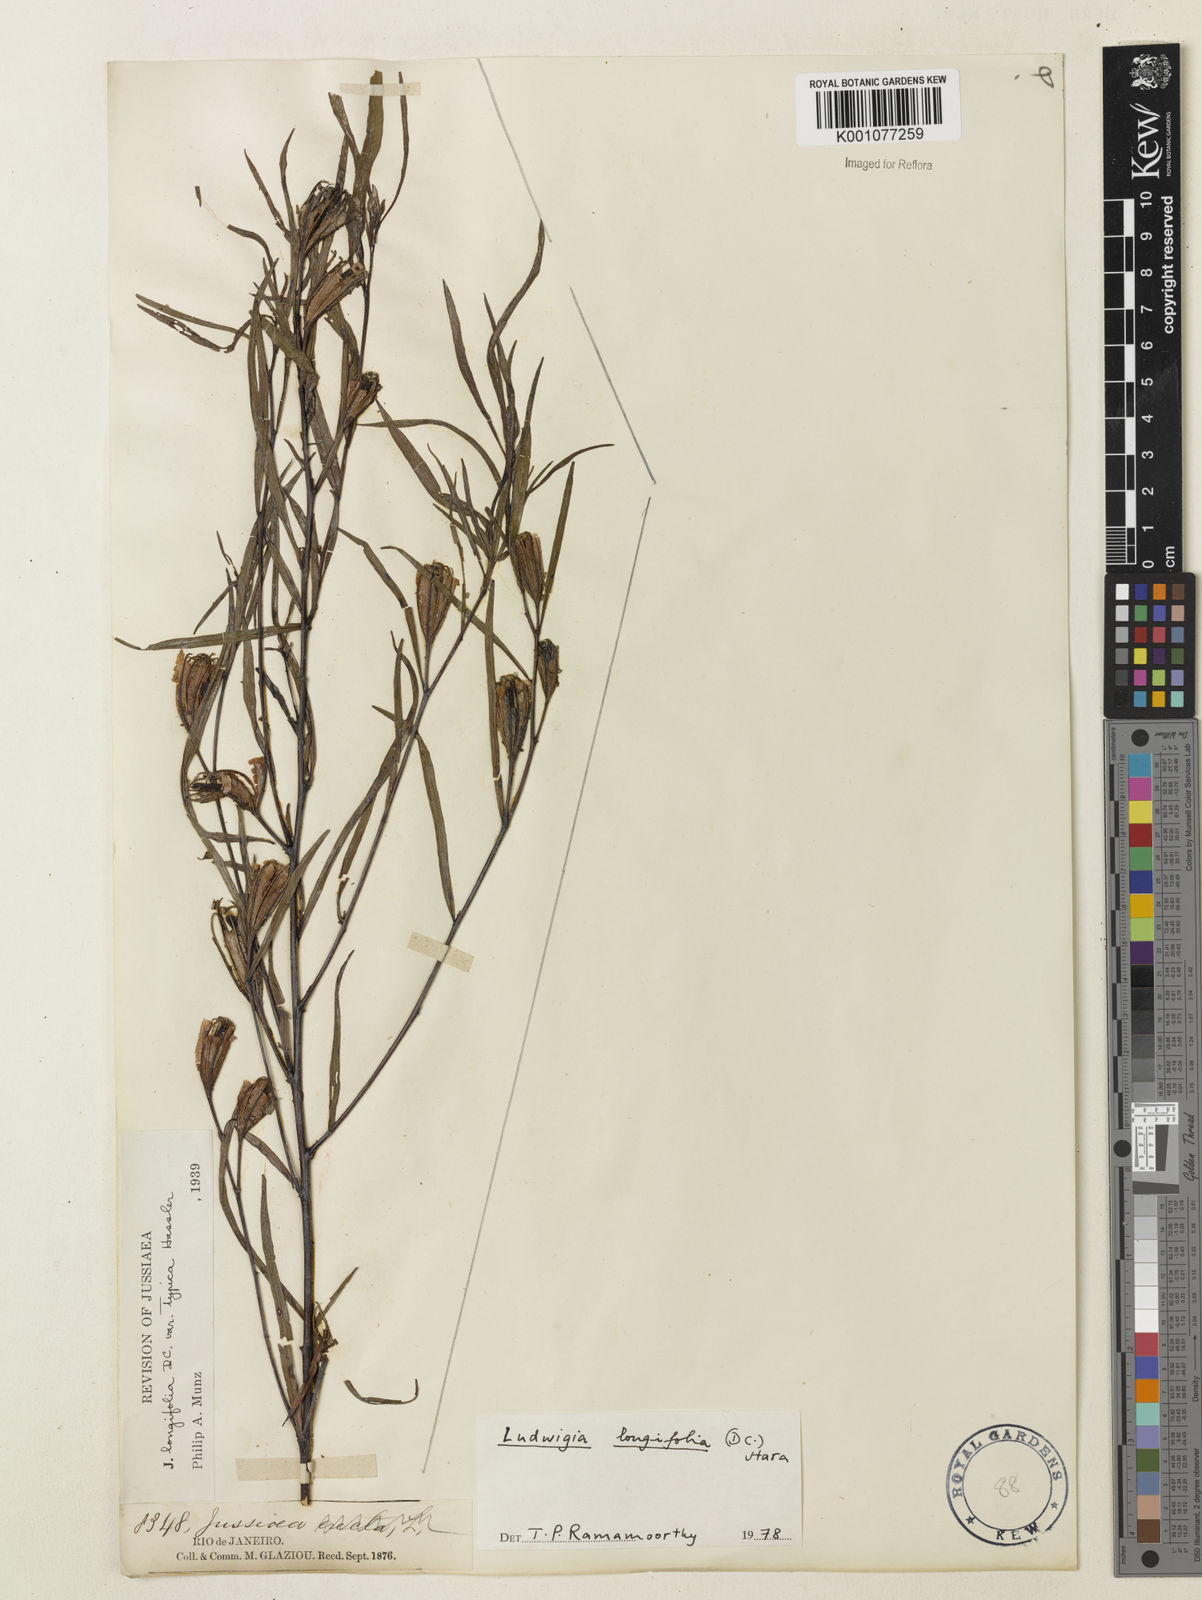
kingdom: Plantae
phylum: Tracheophyta
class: Magnoliopsida
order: Myrtales
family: Onagraceae
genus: Ludwigia
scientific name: Ludwigia longifolia
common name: Longleaf primrose-willow
